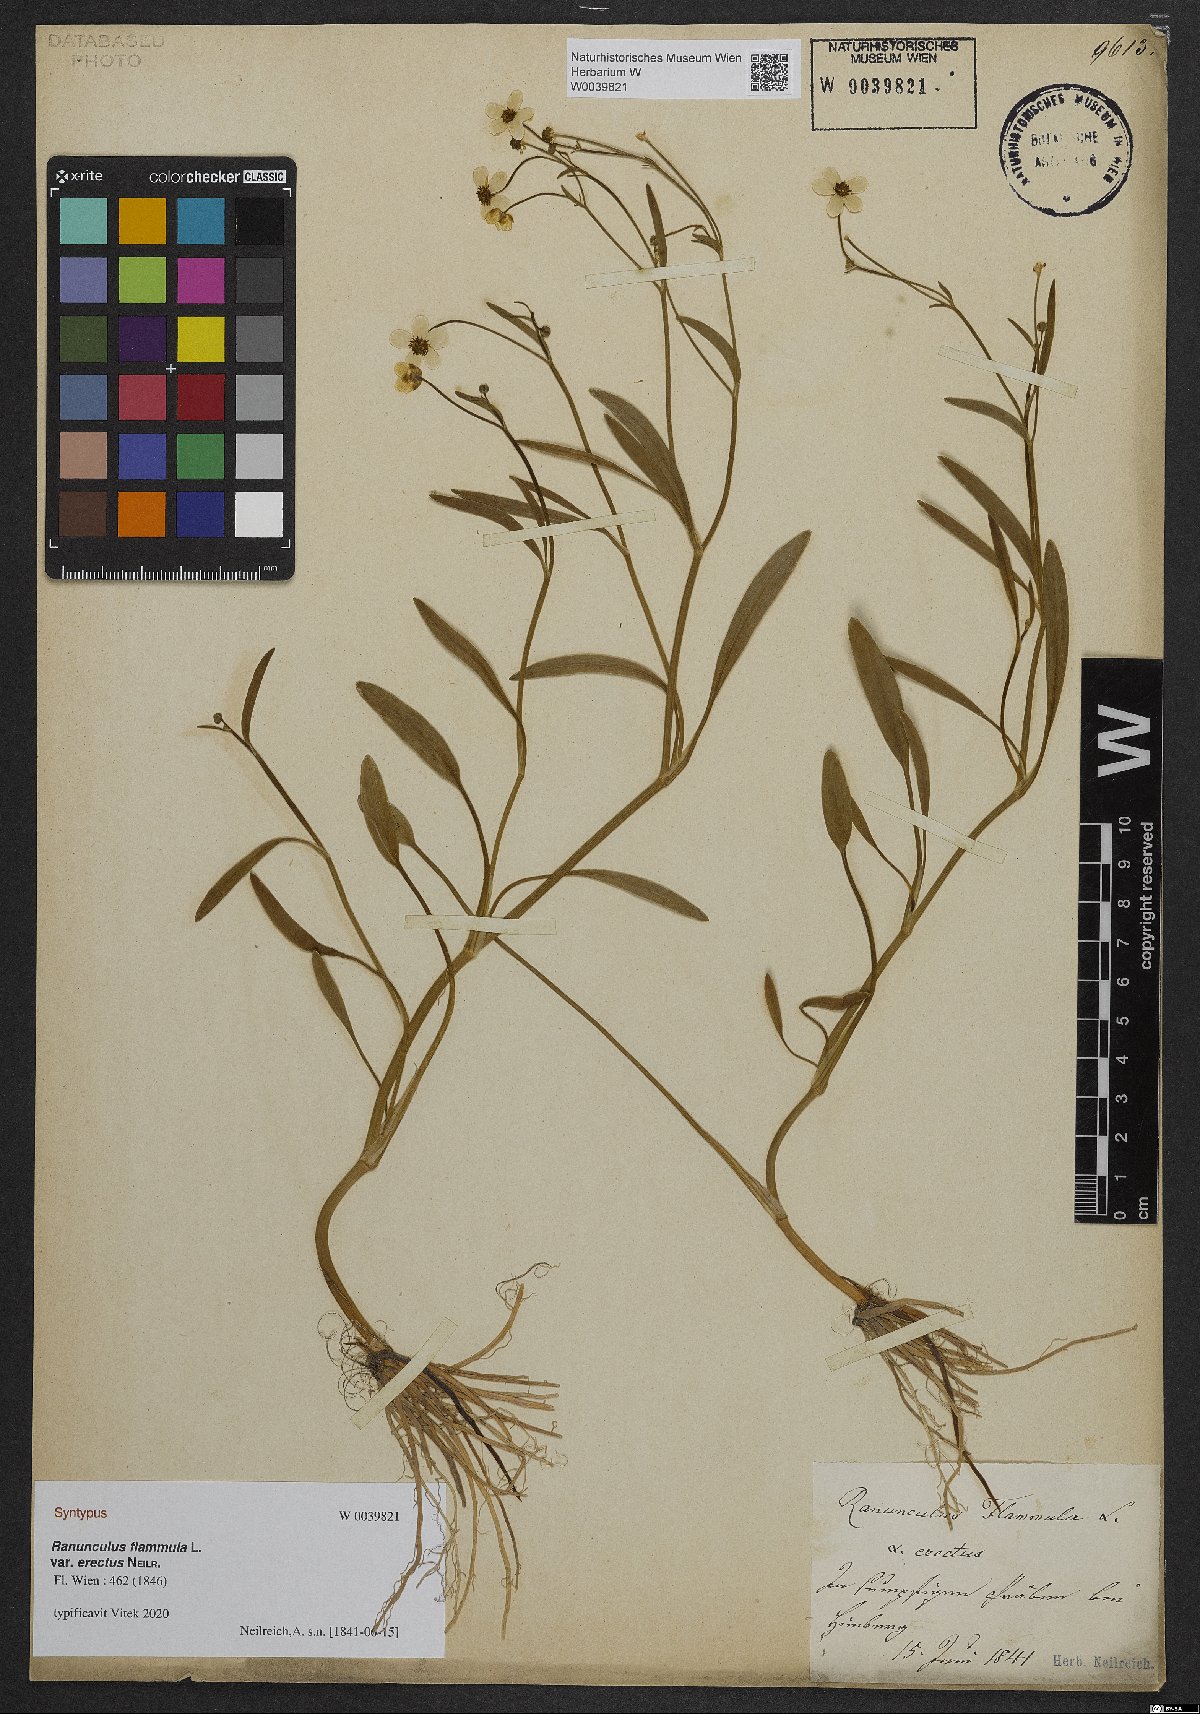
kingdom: Plantae
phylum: Tracheophyta
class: Magnoliopsida
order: Ranunculales
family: Ranunculaceae
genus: Ranunculus
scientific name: Ranunculus reptans
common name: Creeping spearwort
